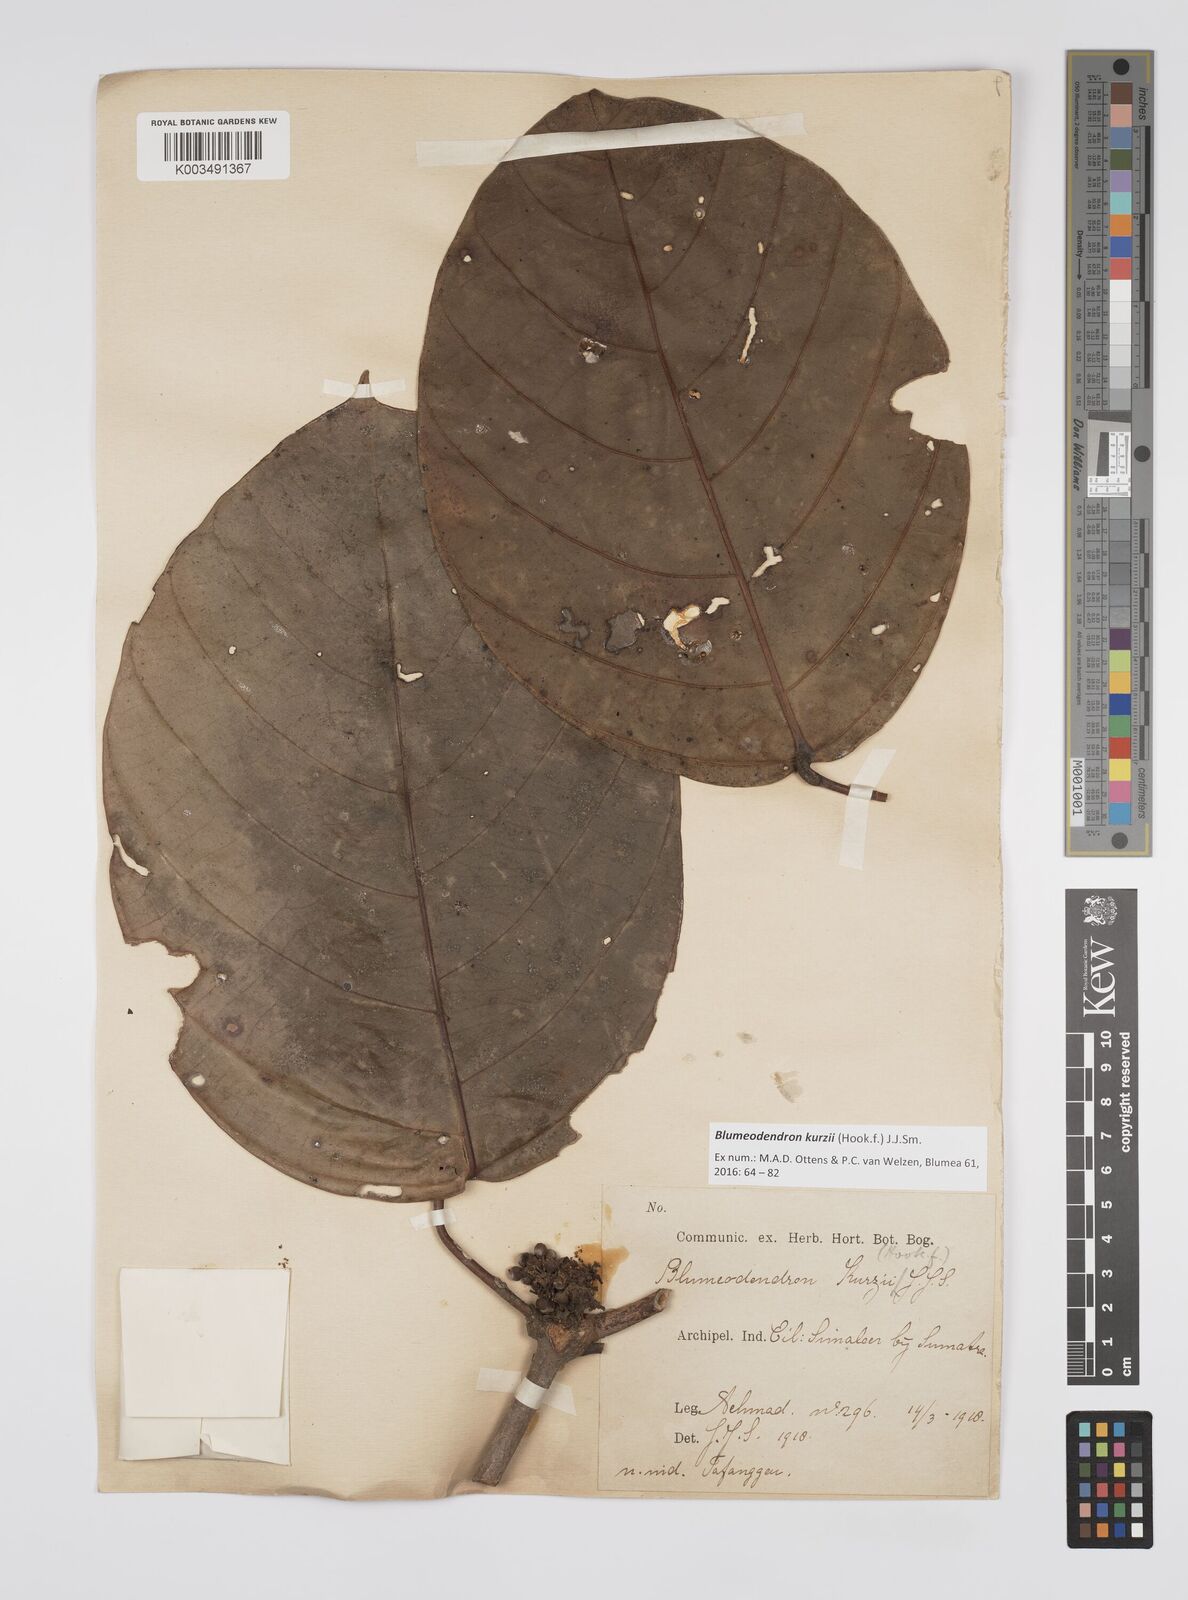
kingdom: Plantae
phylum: Tracheophyta
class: Magnoliopsida
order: Malpighiales
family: Euphorbiaceae
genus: Blumeodendron
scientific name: Blumeodendron kurzii
